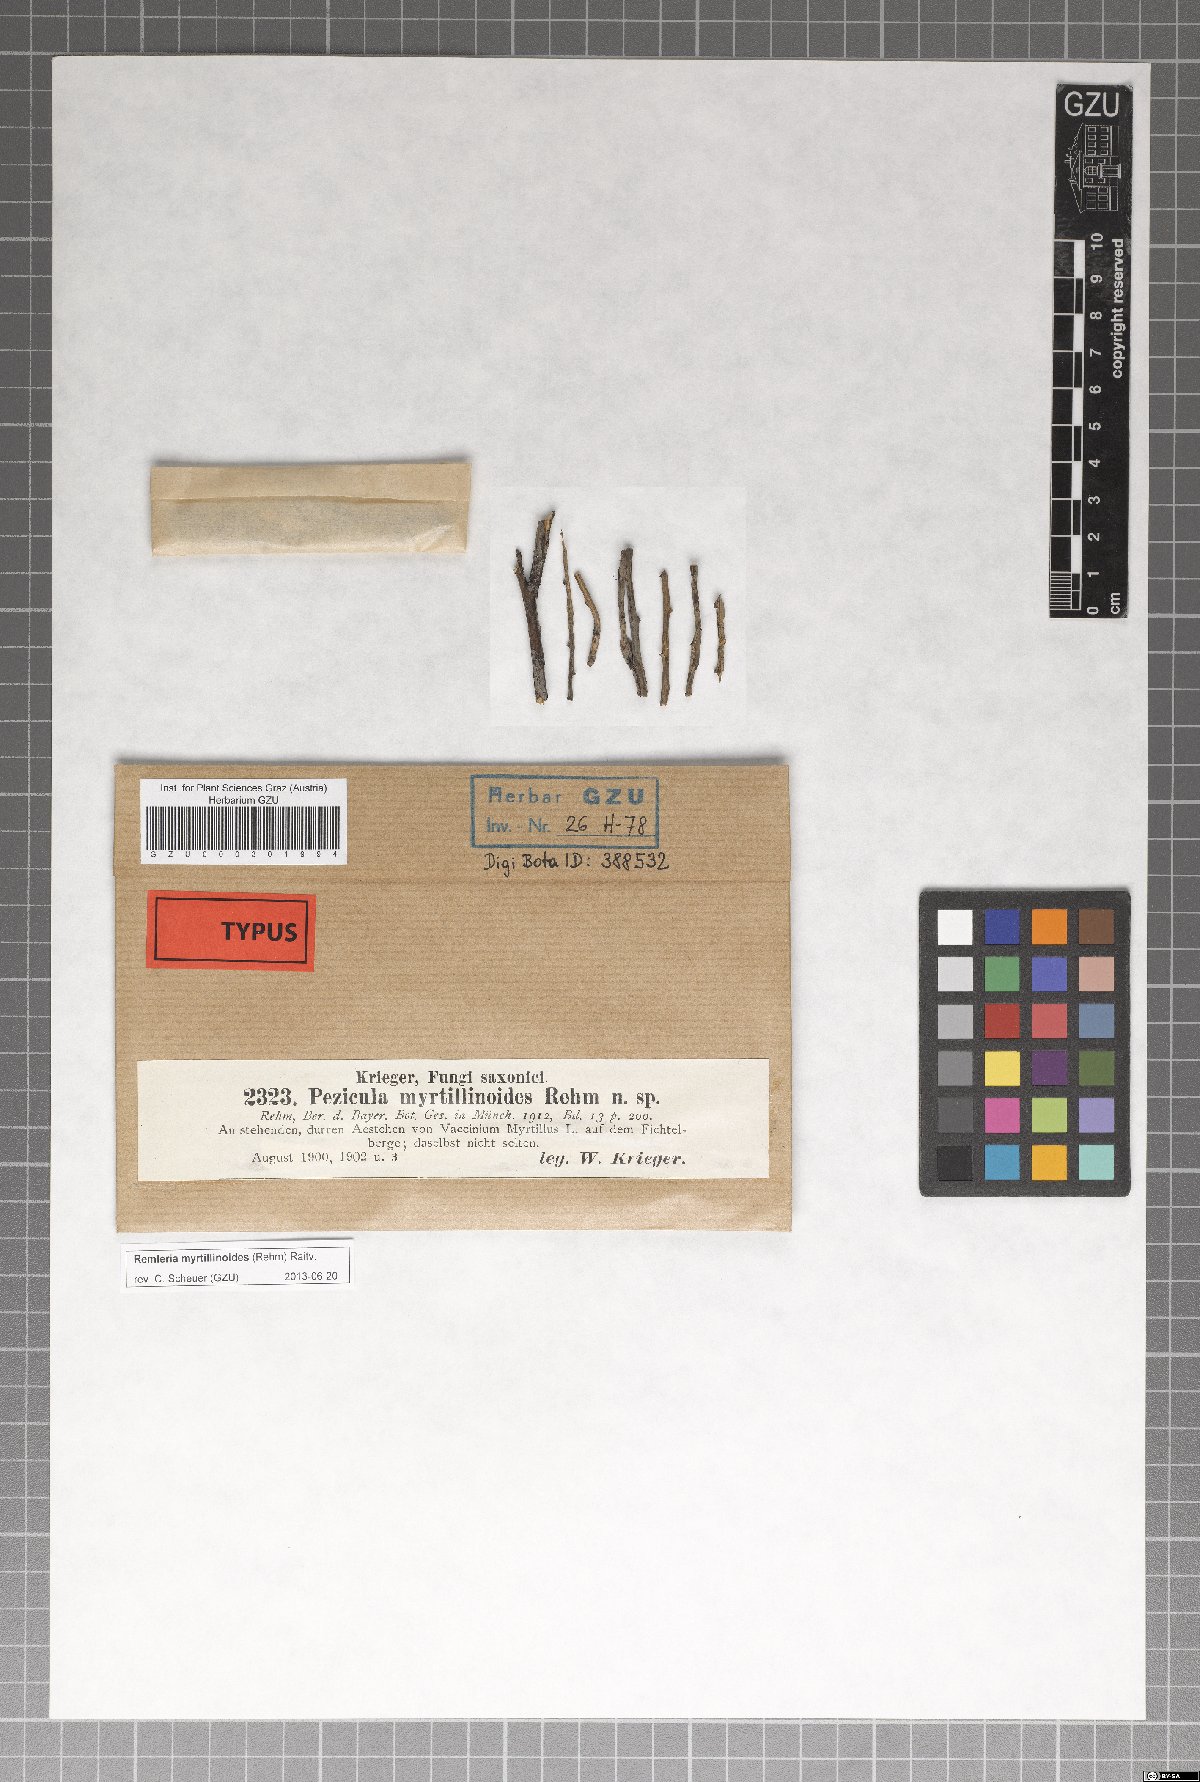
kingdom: Fungi
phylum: Ascomycota
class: Leotiomycetes
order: Helotiales
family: Hyaloscyphaceae
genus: Remleria
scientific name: Remleria myrtillinoides
